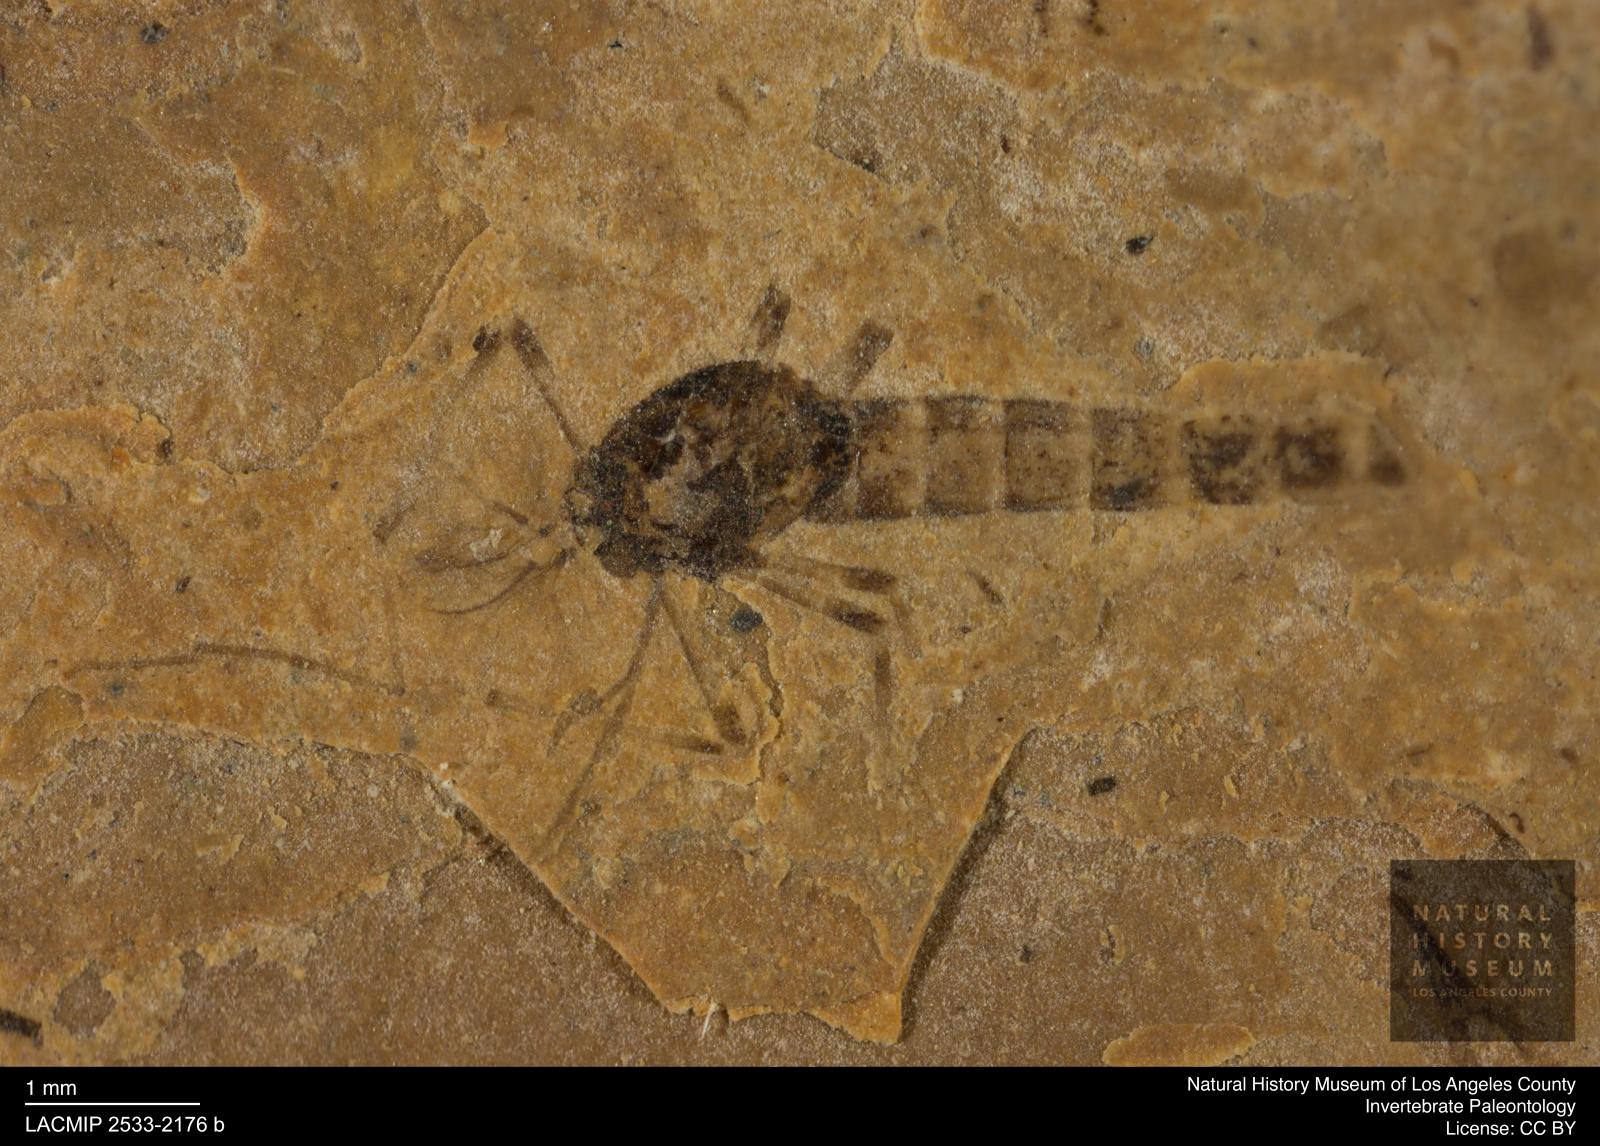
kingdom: Animalia
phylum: Arthropoda
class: Insecta
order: Diptera
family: Chironomidae
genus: Procladius
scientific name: Procladius
